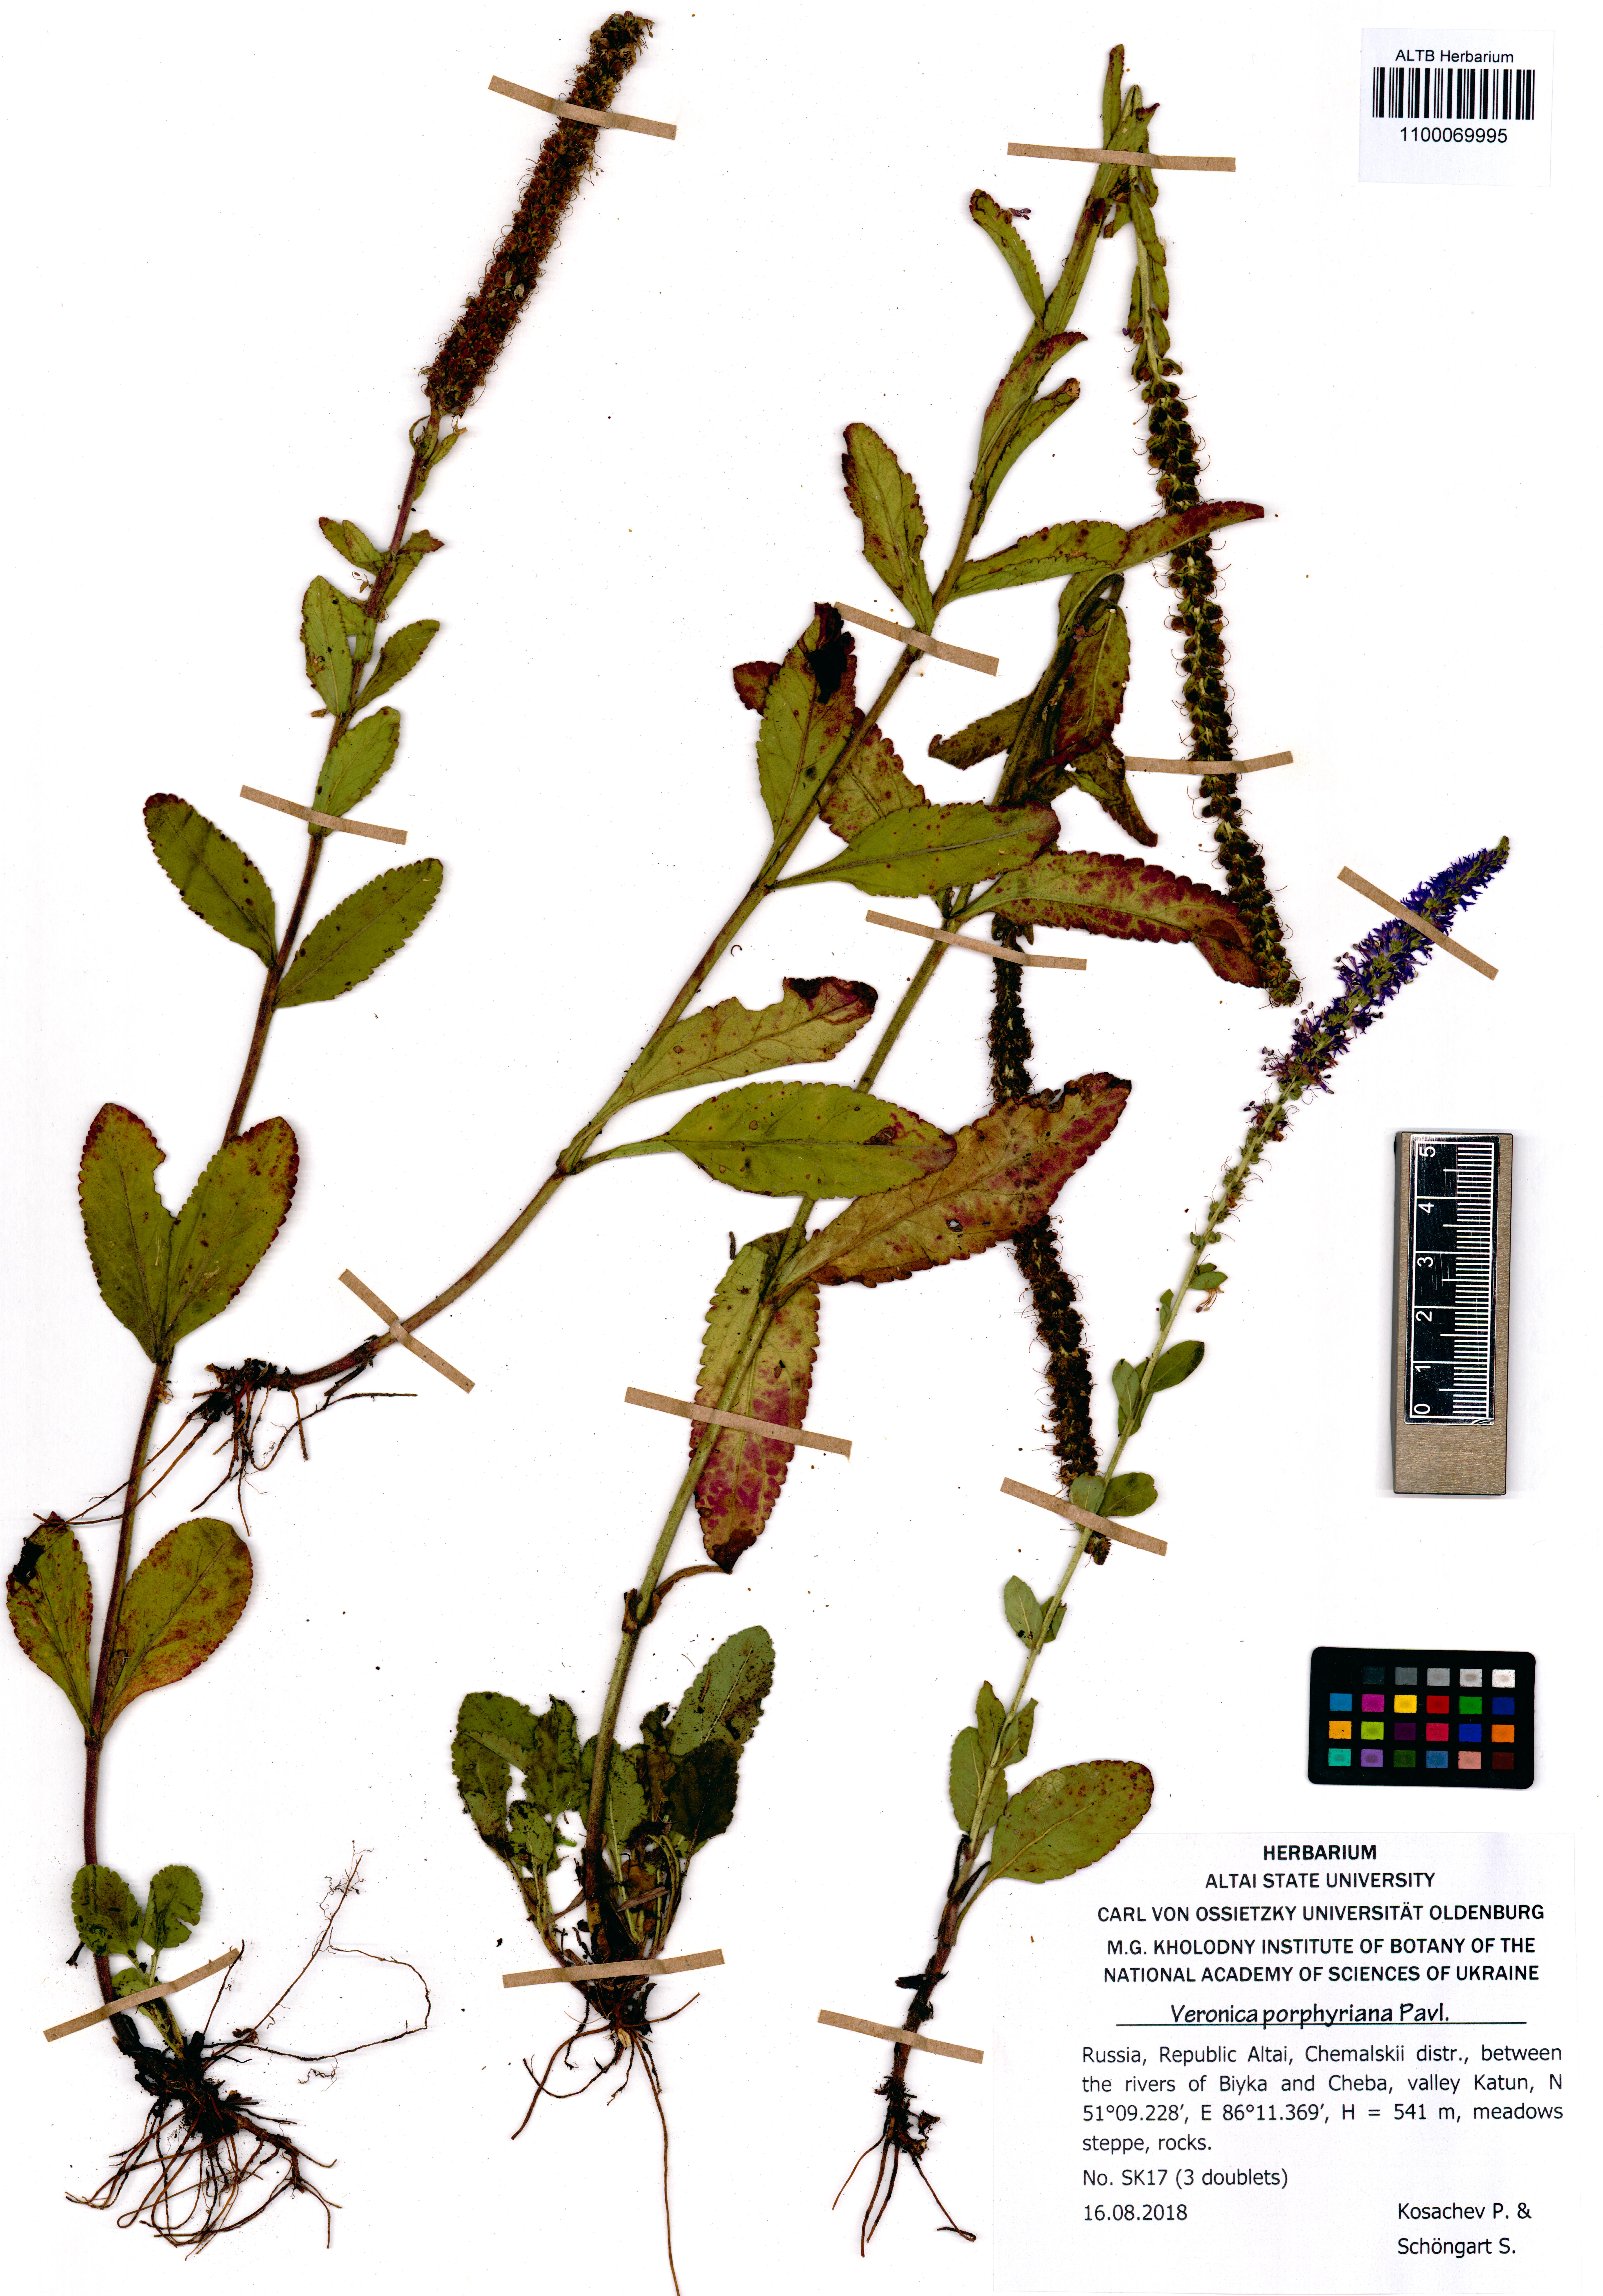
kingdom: Plantae
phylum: Tracheophyta
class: Magnoliopsida
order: Lamiales
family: Plantaginaceae
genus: Veronica
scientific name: Veronica porphyriana
